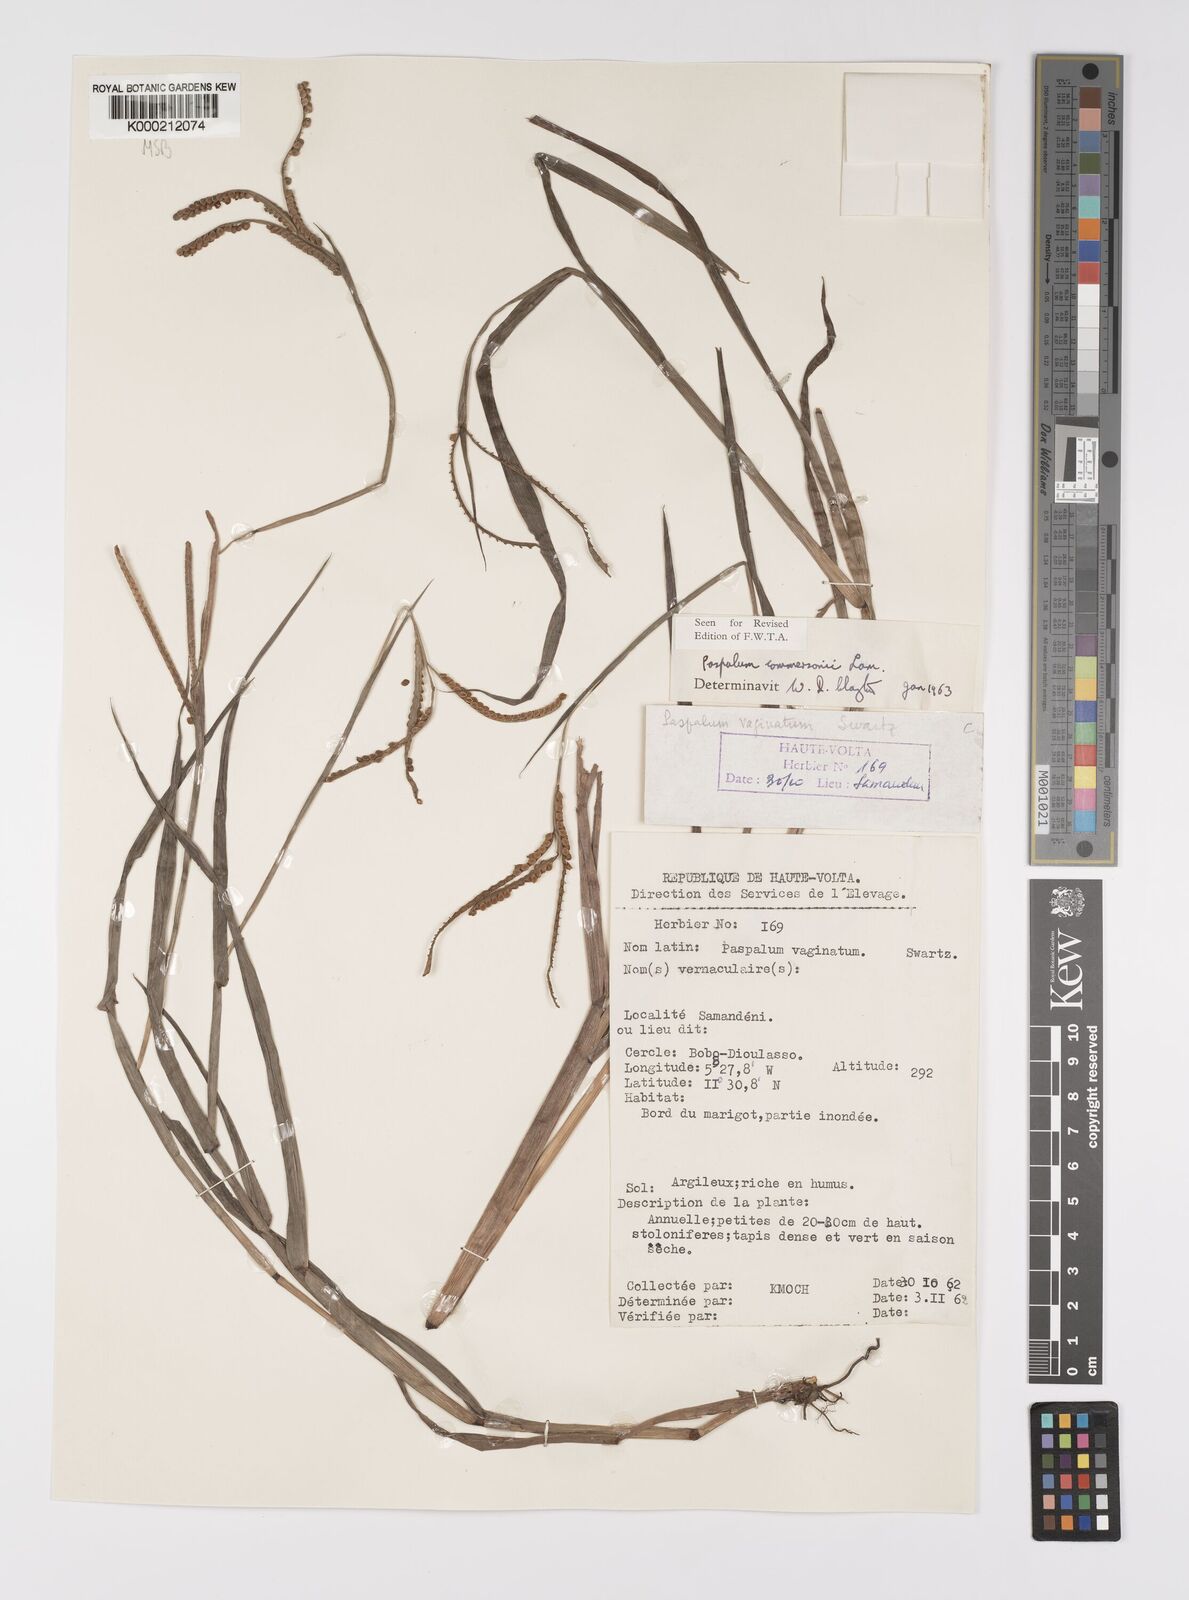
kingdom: Plantae
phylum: Tracheophyta
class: Liliopsida
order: Poales
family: Poaceae
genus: Paspalum
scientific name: Paspalum scrobiculatum
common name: Kodo millet
